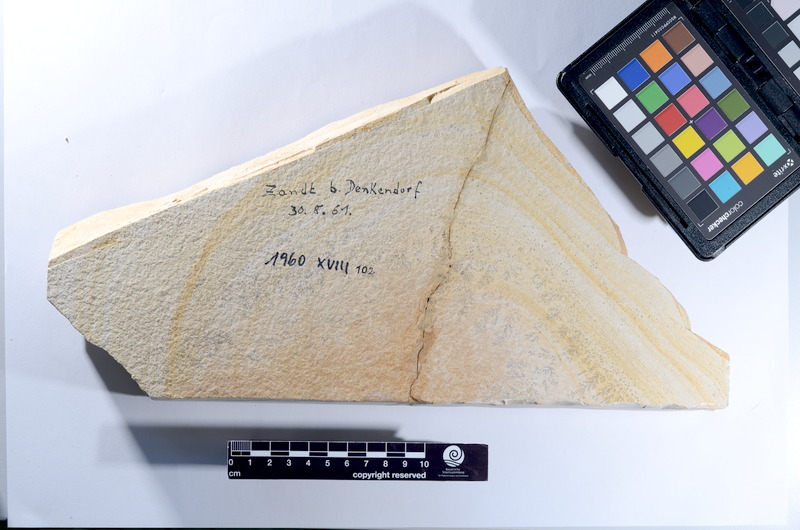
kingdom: Animalia
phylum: Chordata
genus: Thrissops
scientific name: Thrissops
